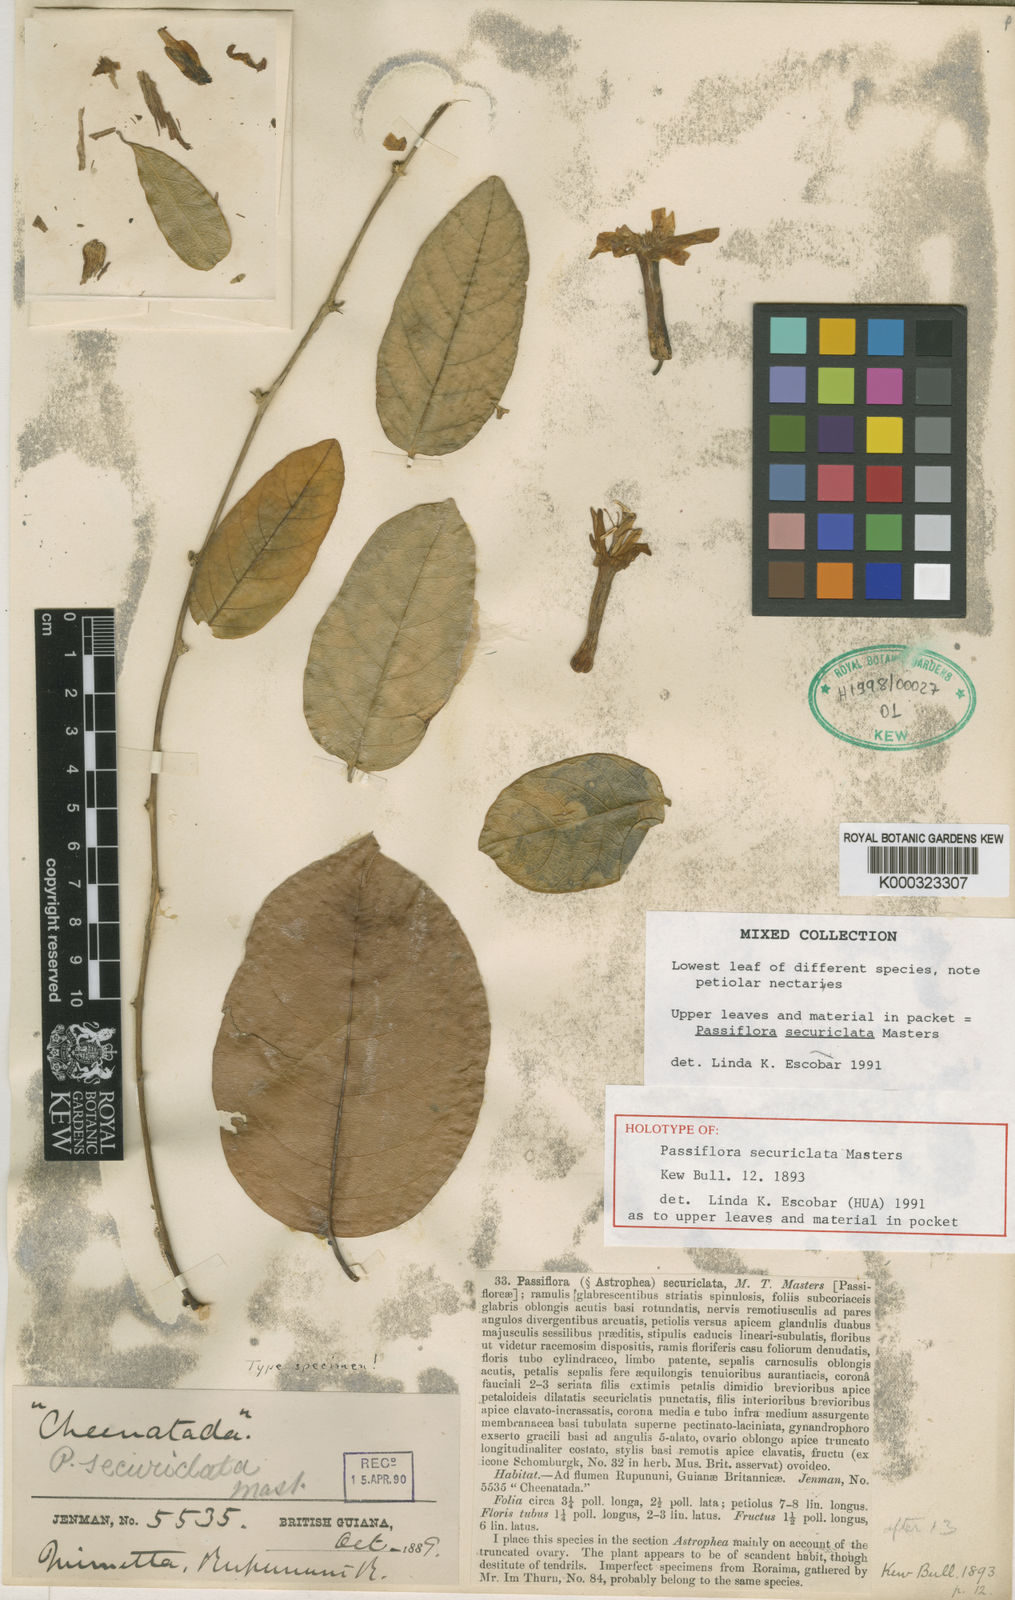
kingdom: Plantae
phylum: Tracheophyta
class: Magnoliopsida
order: Malpighiales
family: Passifloraceae
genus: Passiflora
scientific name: Passiflora securiclata
